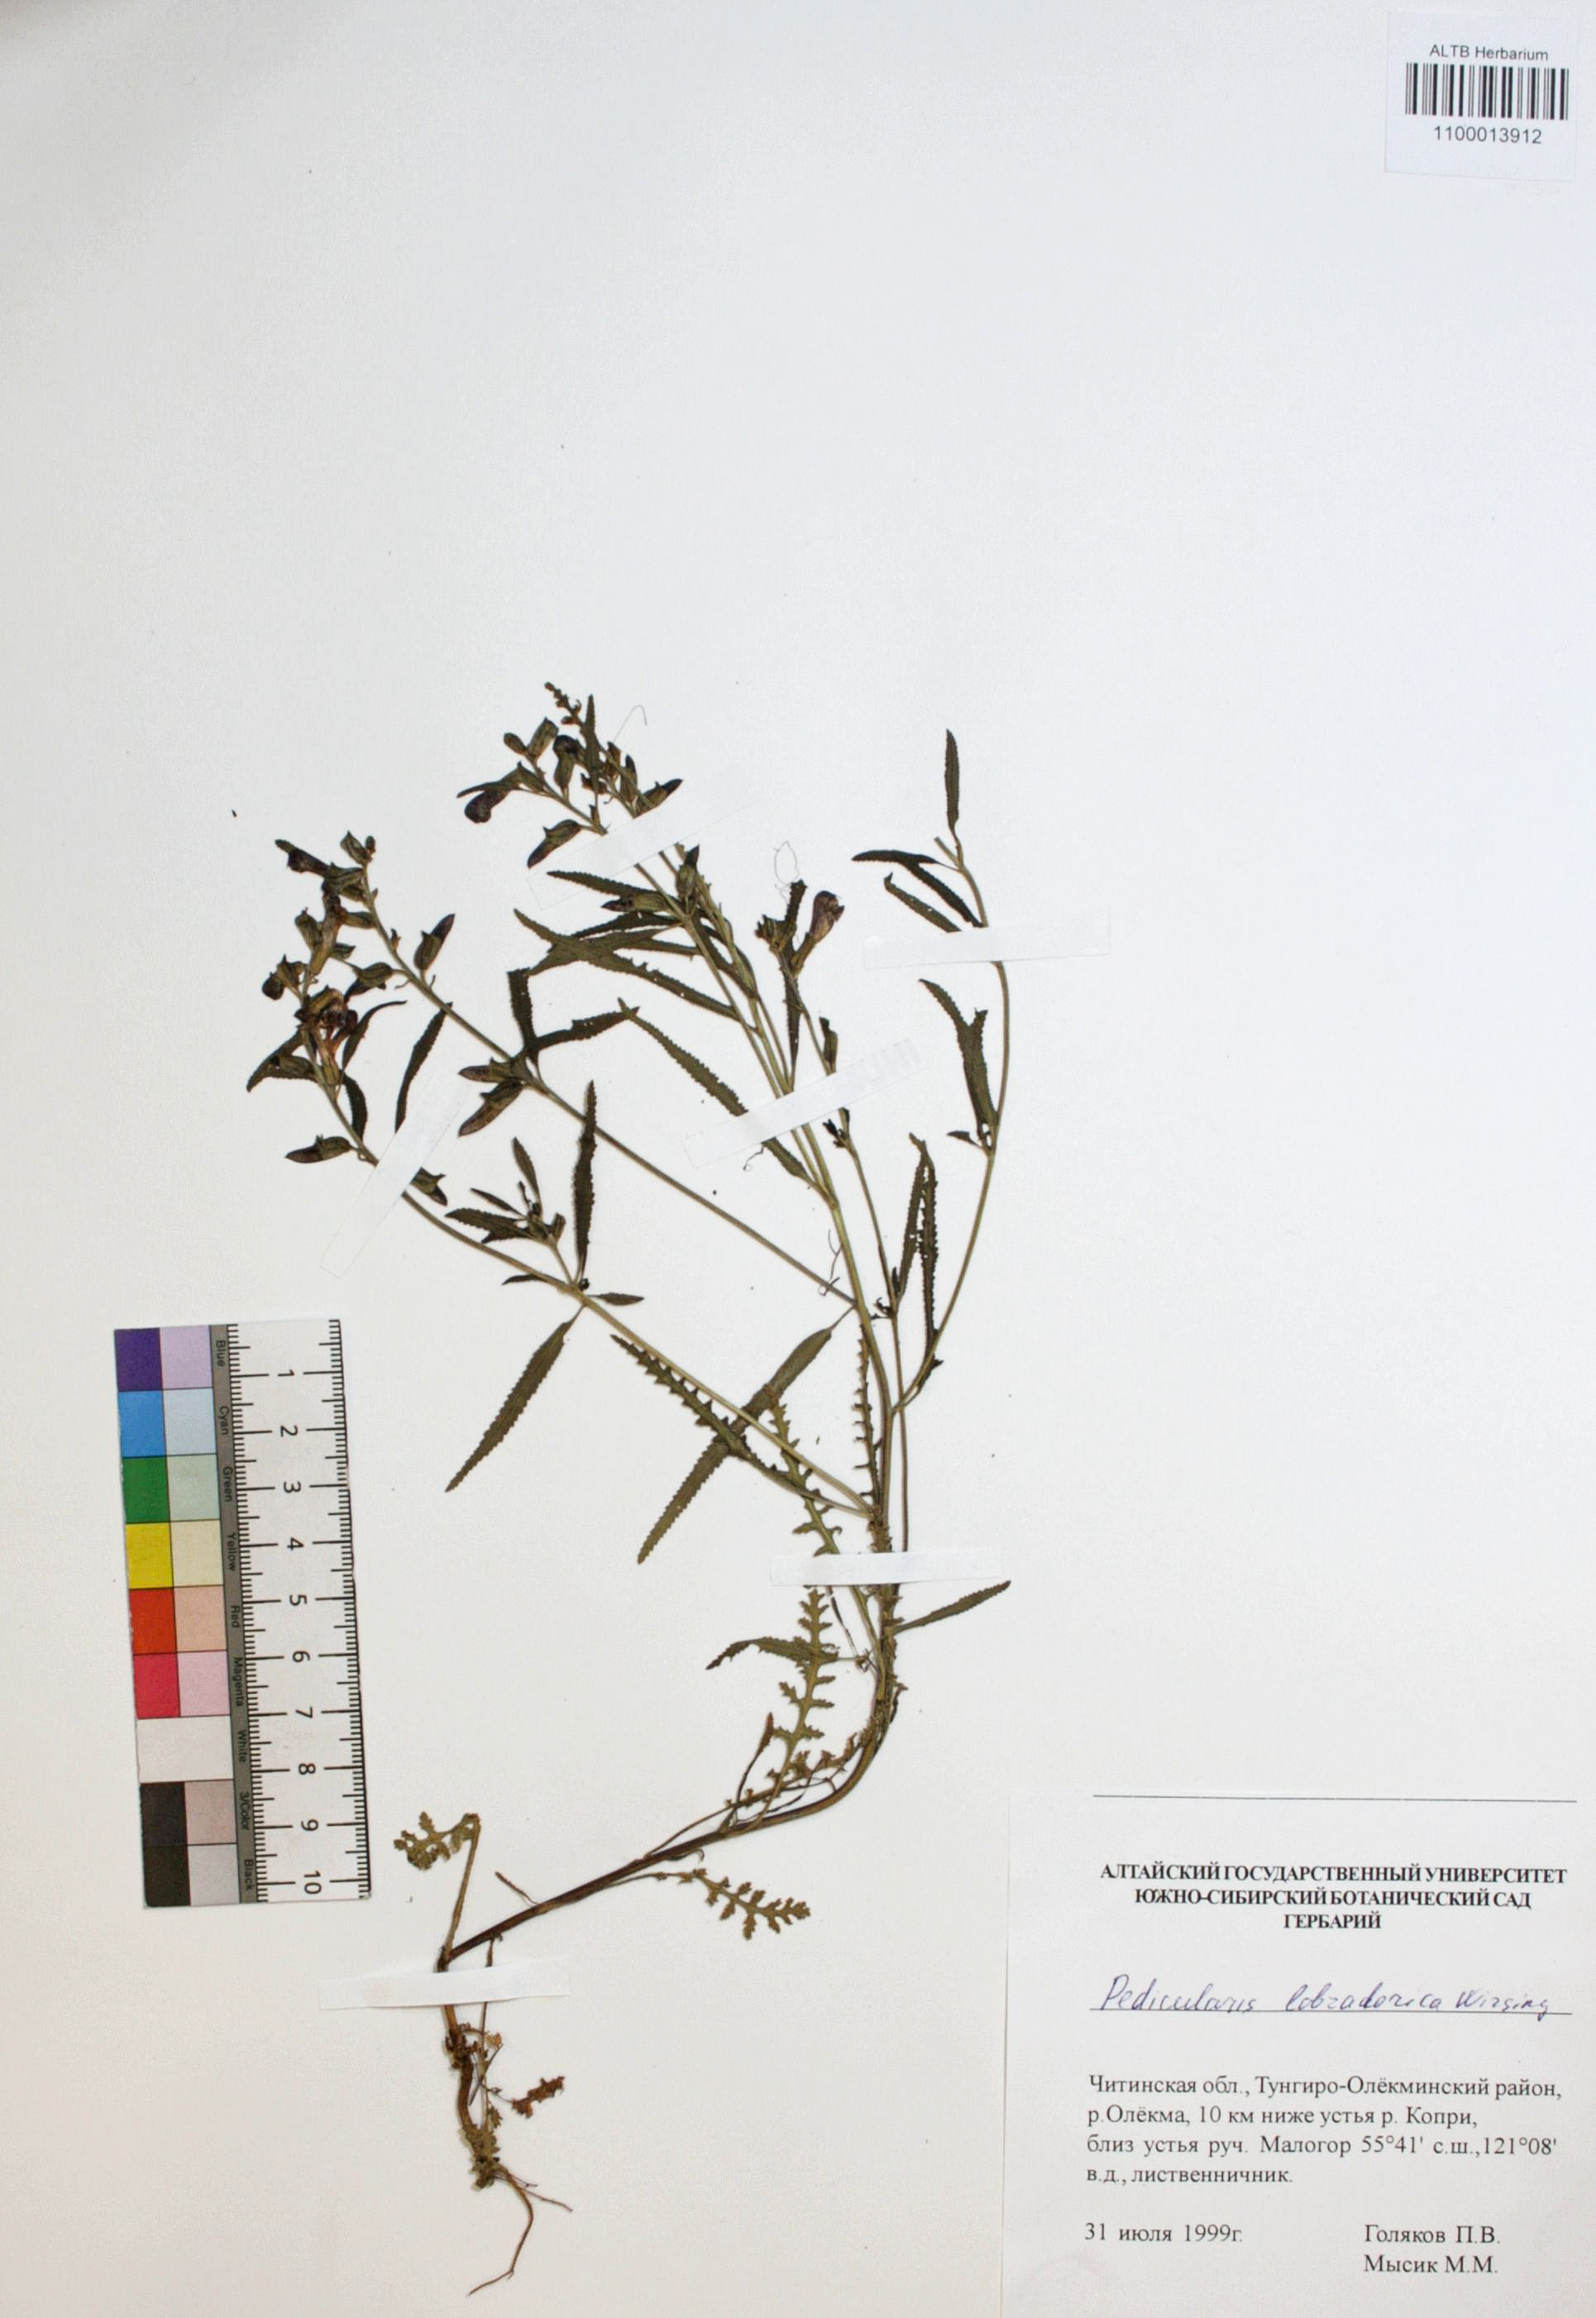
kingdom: Plantae
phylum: Tracheophyta
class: Magnoliopsida
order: Lamiales
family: Orobanchaceae
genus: Pedicularis
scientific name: Pedicularis labradorica
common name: Labrador lousewort
